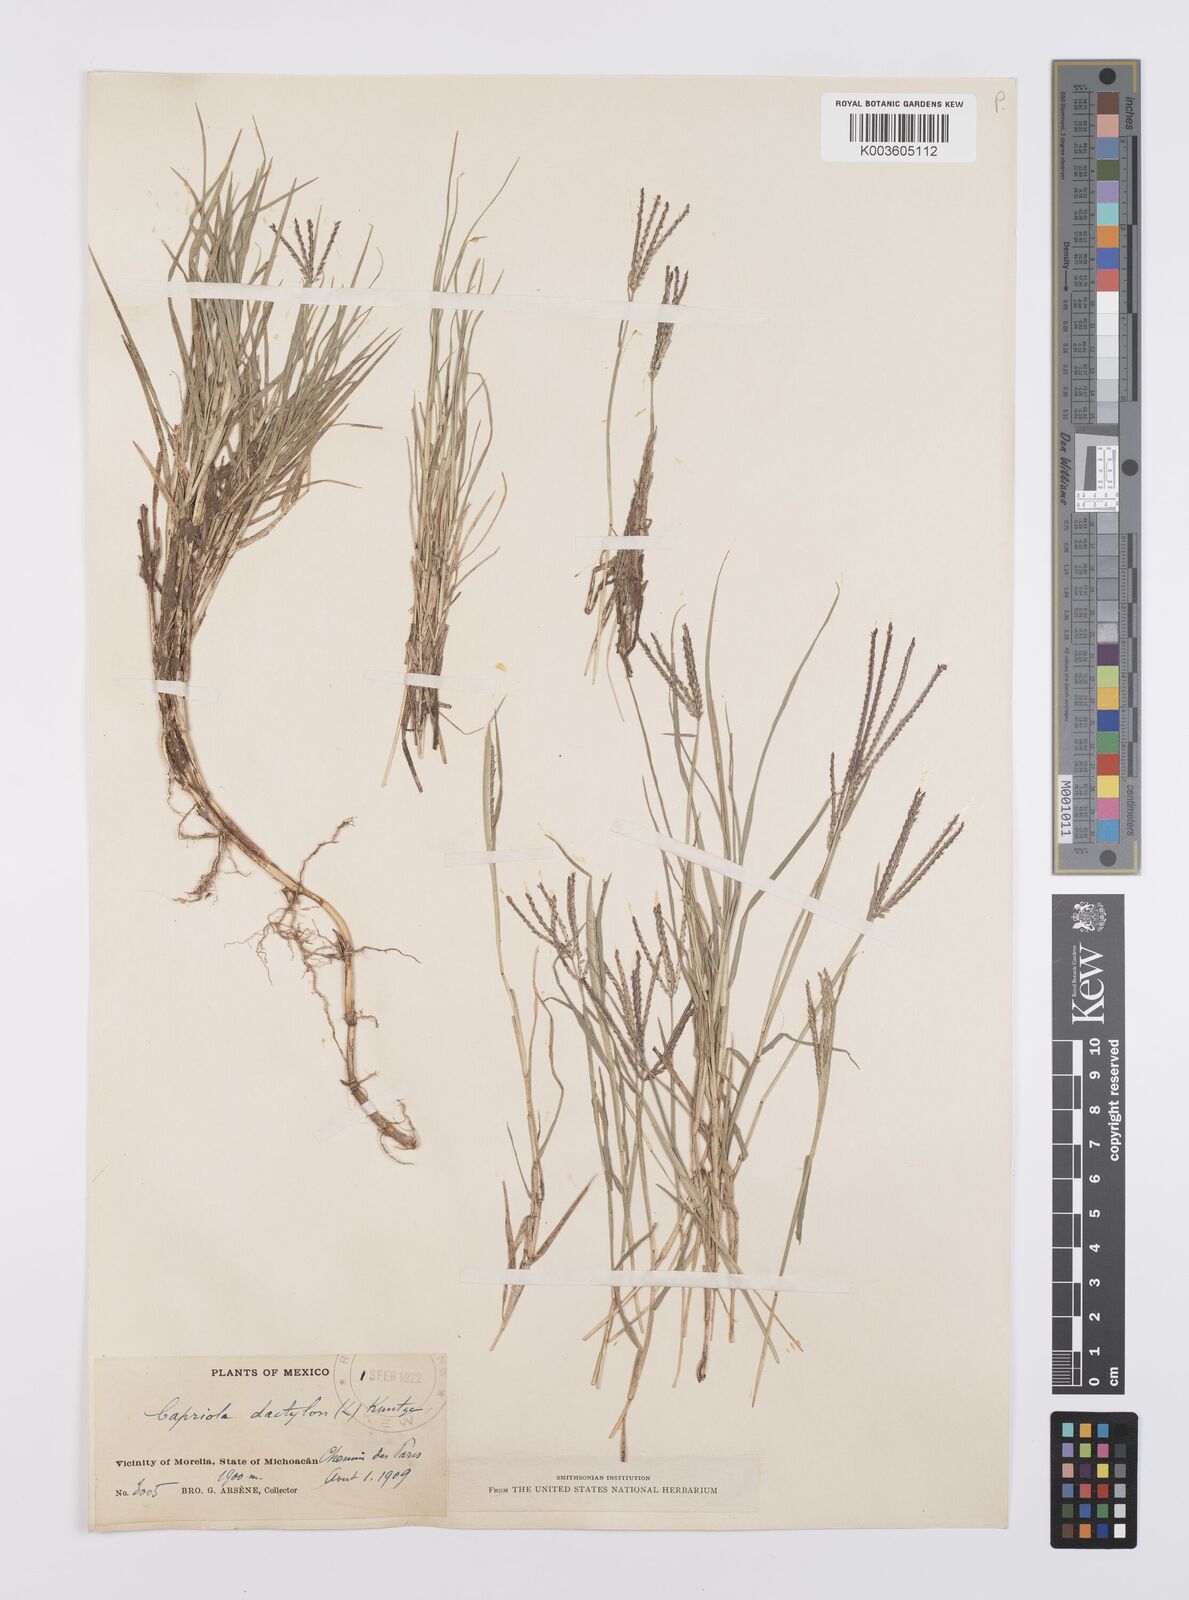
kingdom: Plantae
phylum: Tracheophyta
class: Liliopsida
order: Poales
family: Poaceae
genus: Cynodon
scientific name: Cynodon dactylon
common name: Bermuda grass
